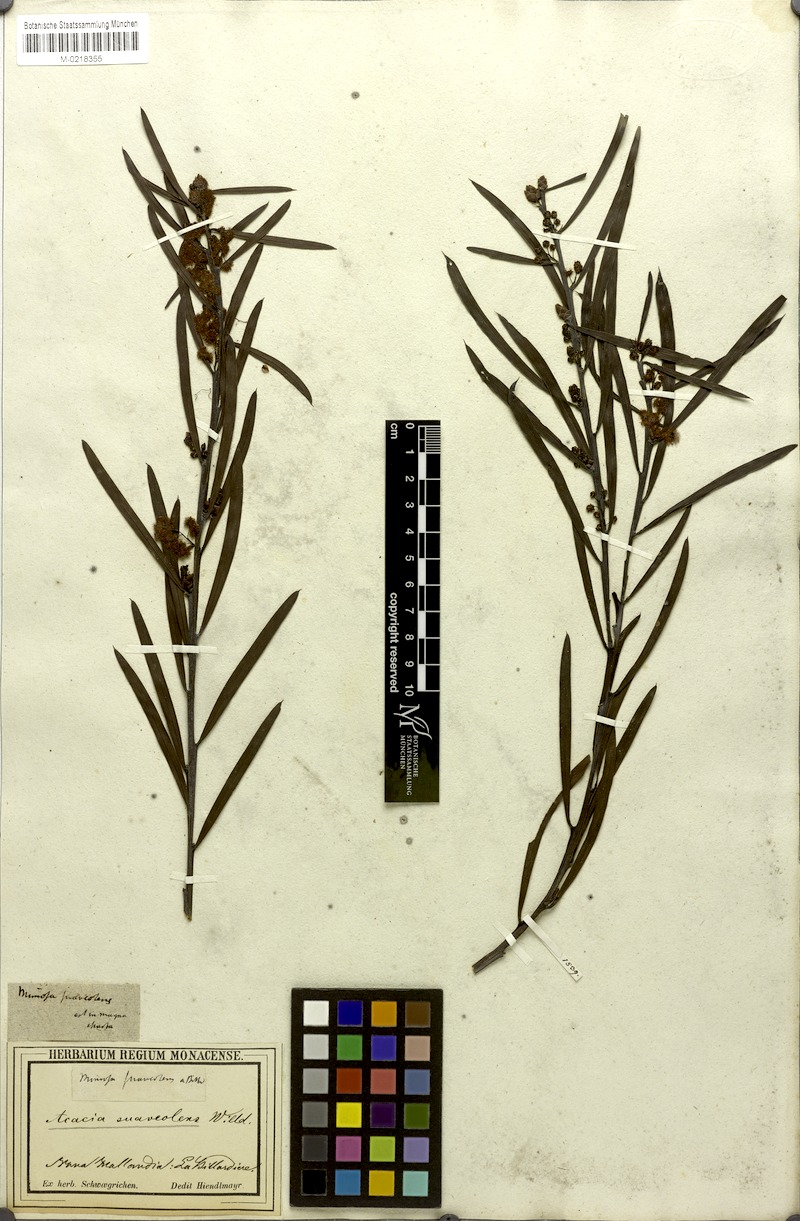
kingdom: Plantae
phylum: Tracheophyta
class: Magnoliopsida
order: Fabales
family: Fabaceae
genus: Acacia
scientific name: Acacia suaveolens
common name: Sweet acacia
